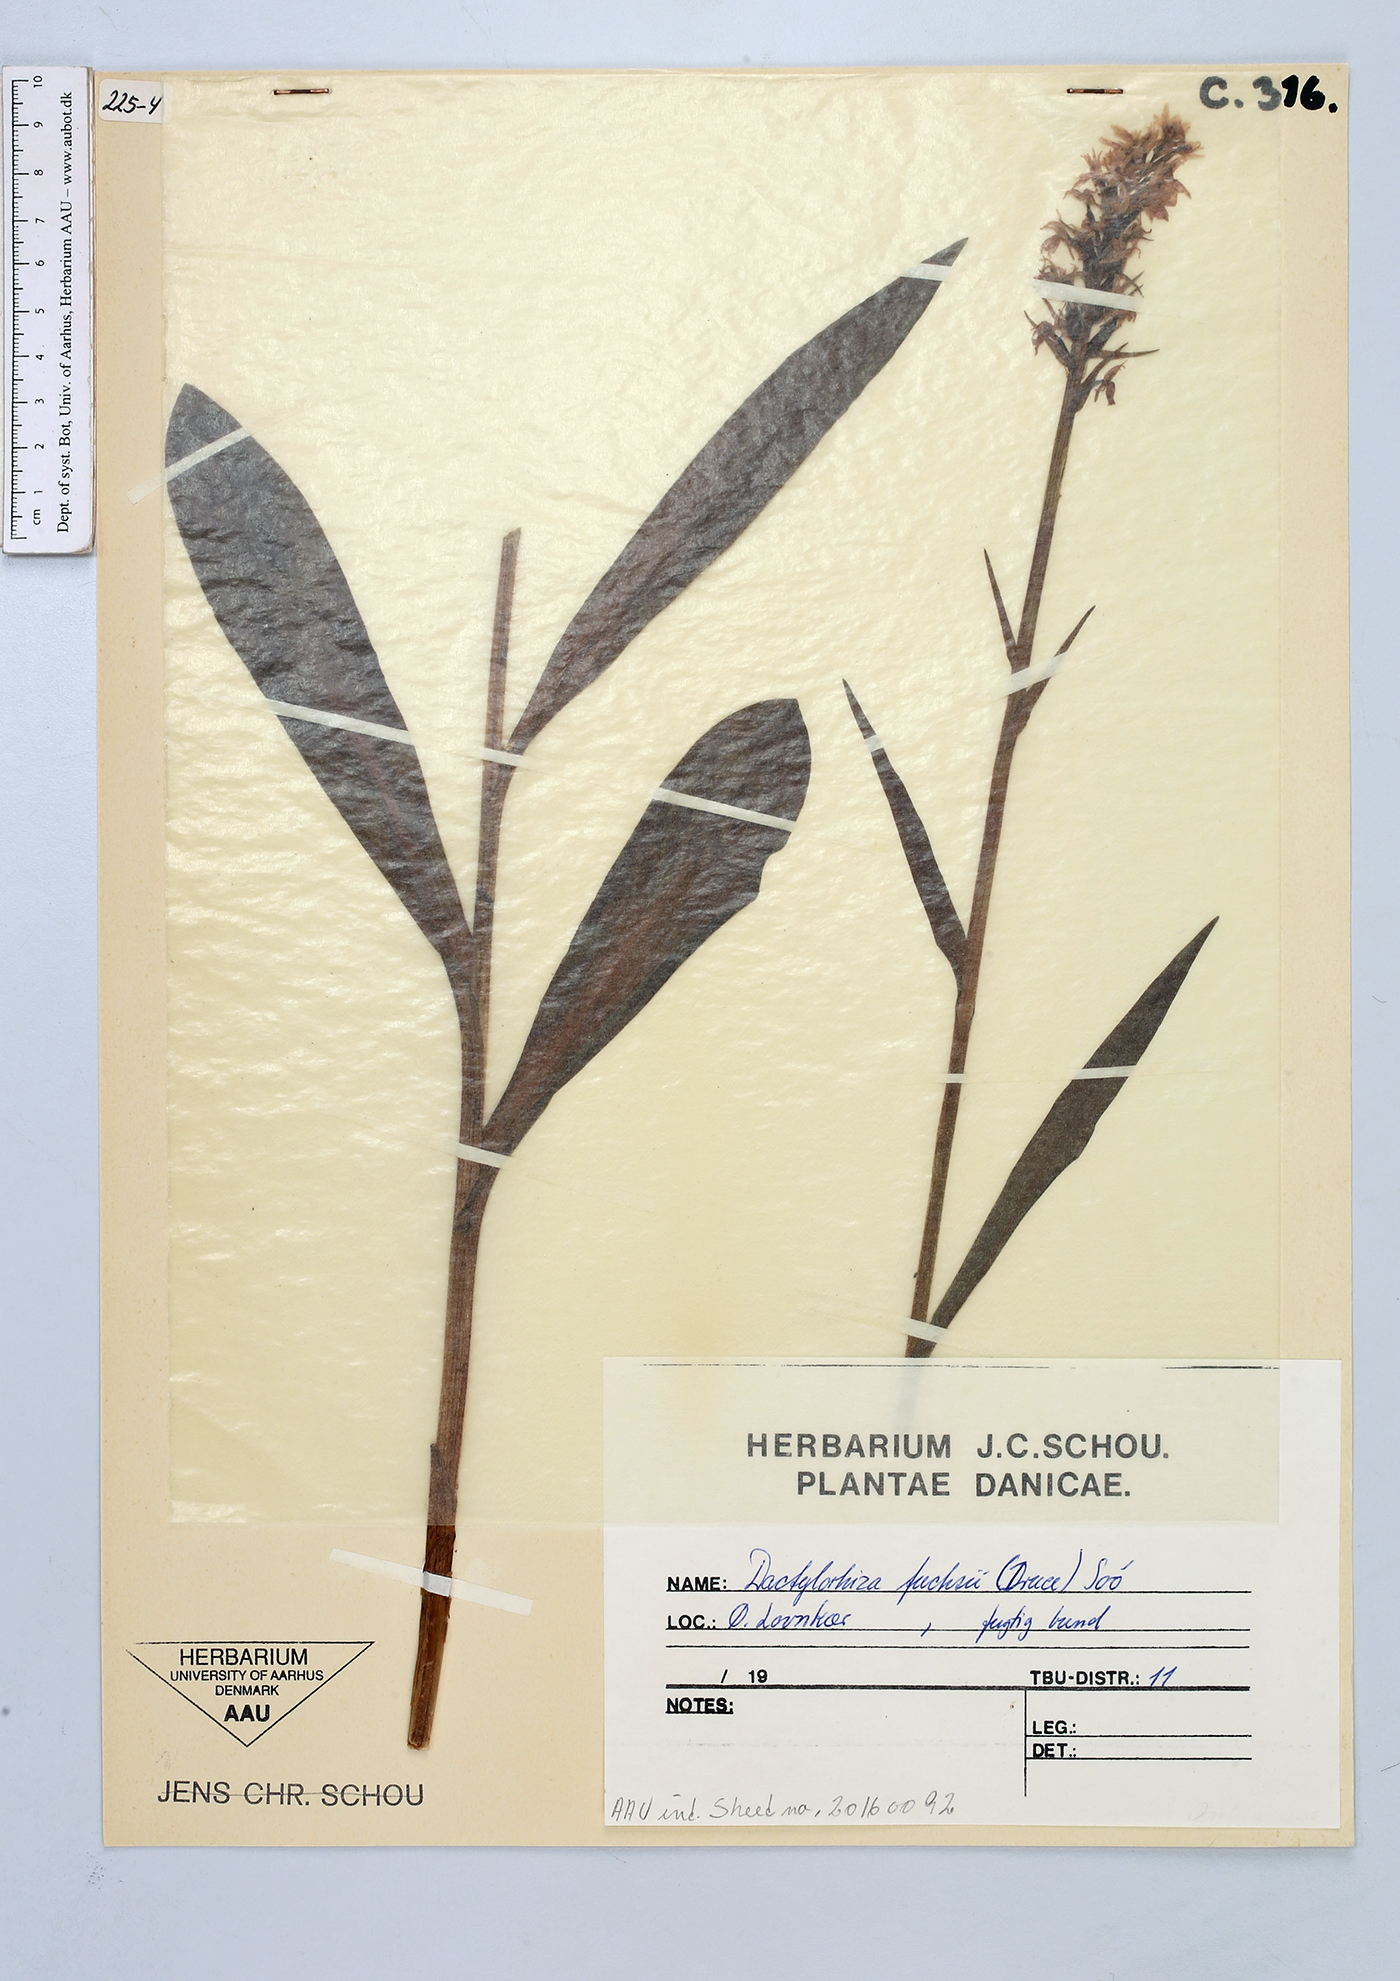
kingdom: Plantae
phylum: Tracheophyta
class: Liliopsida
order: Asparagales
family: Orchidaceae
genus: Dactylorhiza
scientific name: Dactylorhiza maculata
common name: Heath spotted-orchid
